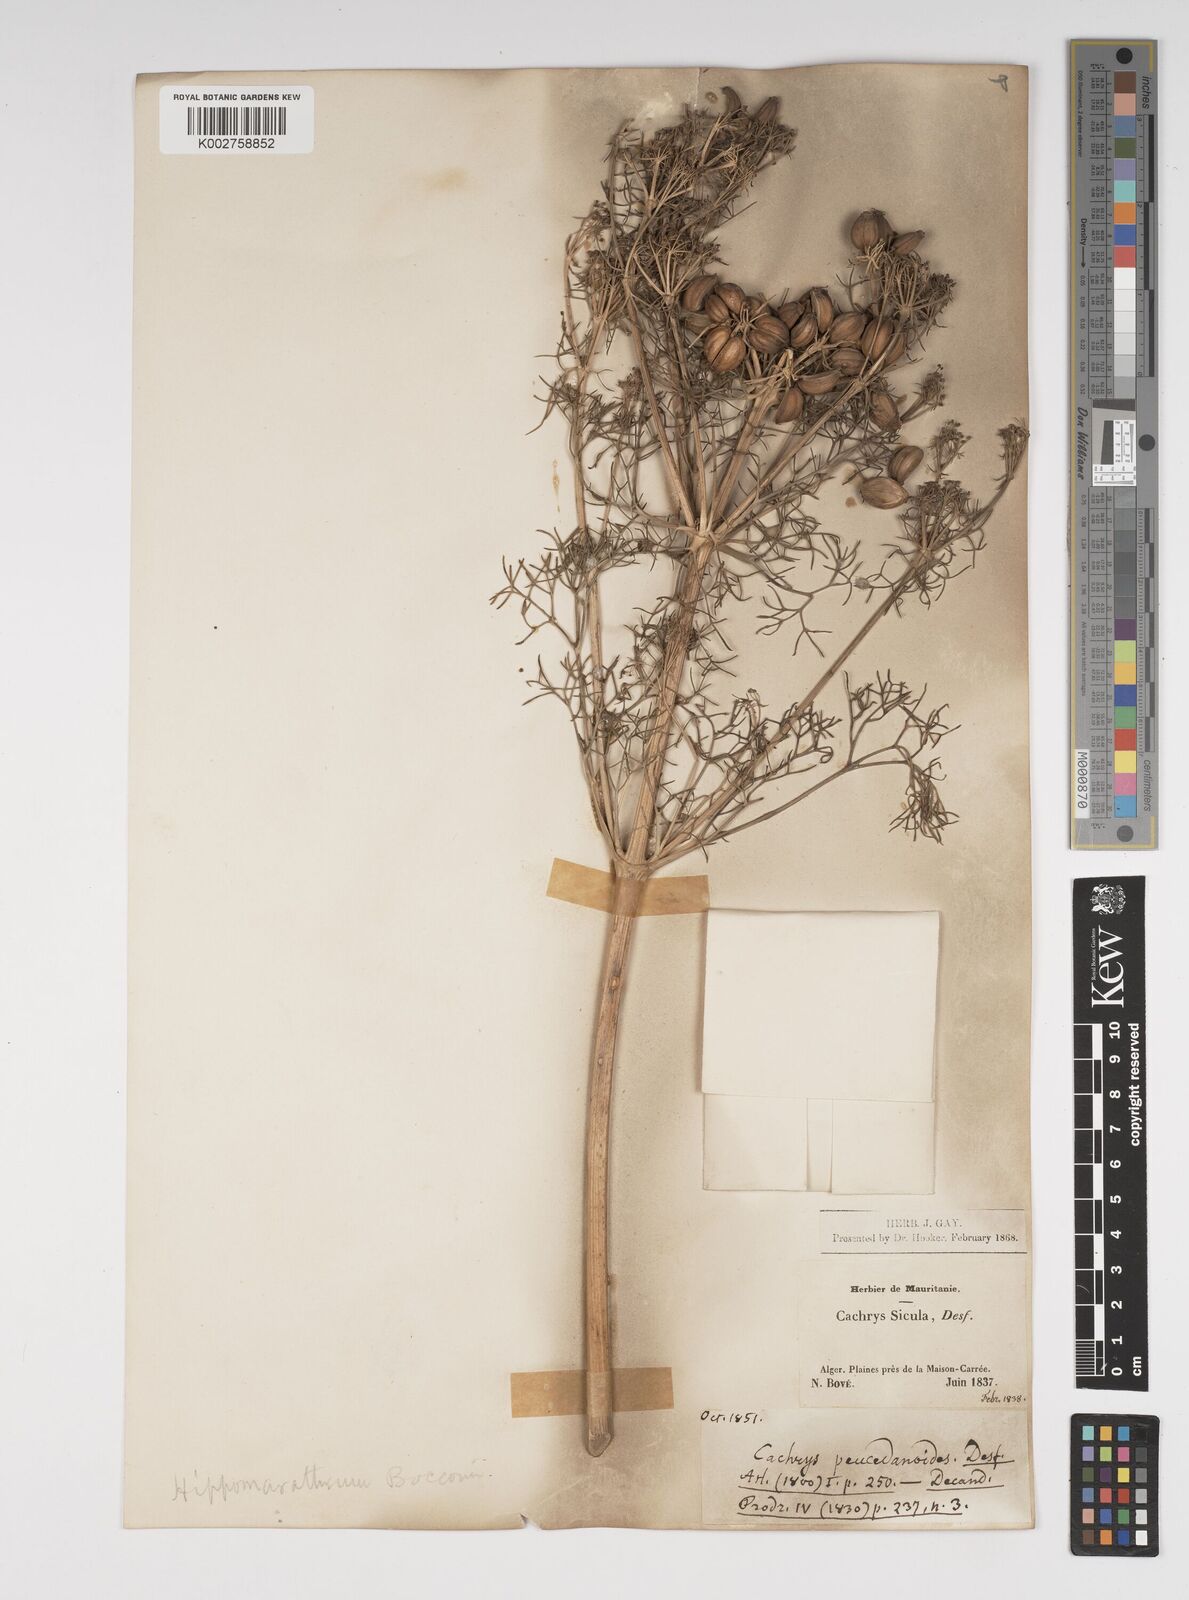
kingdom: Plantae
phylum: Tracheophyta
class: Magnoliopsida
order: Apiales
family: Apiaceae
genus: Cachrys
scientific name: Cachrys
